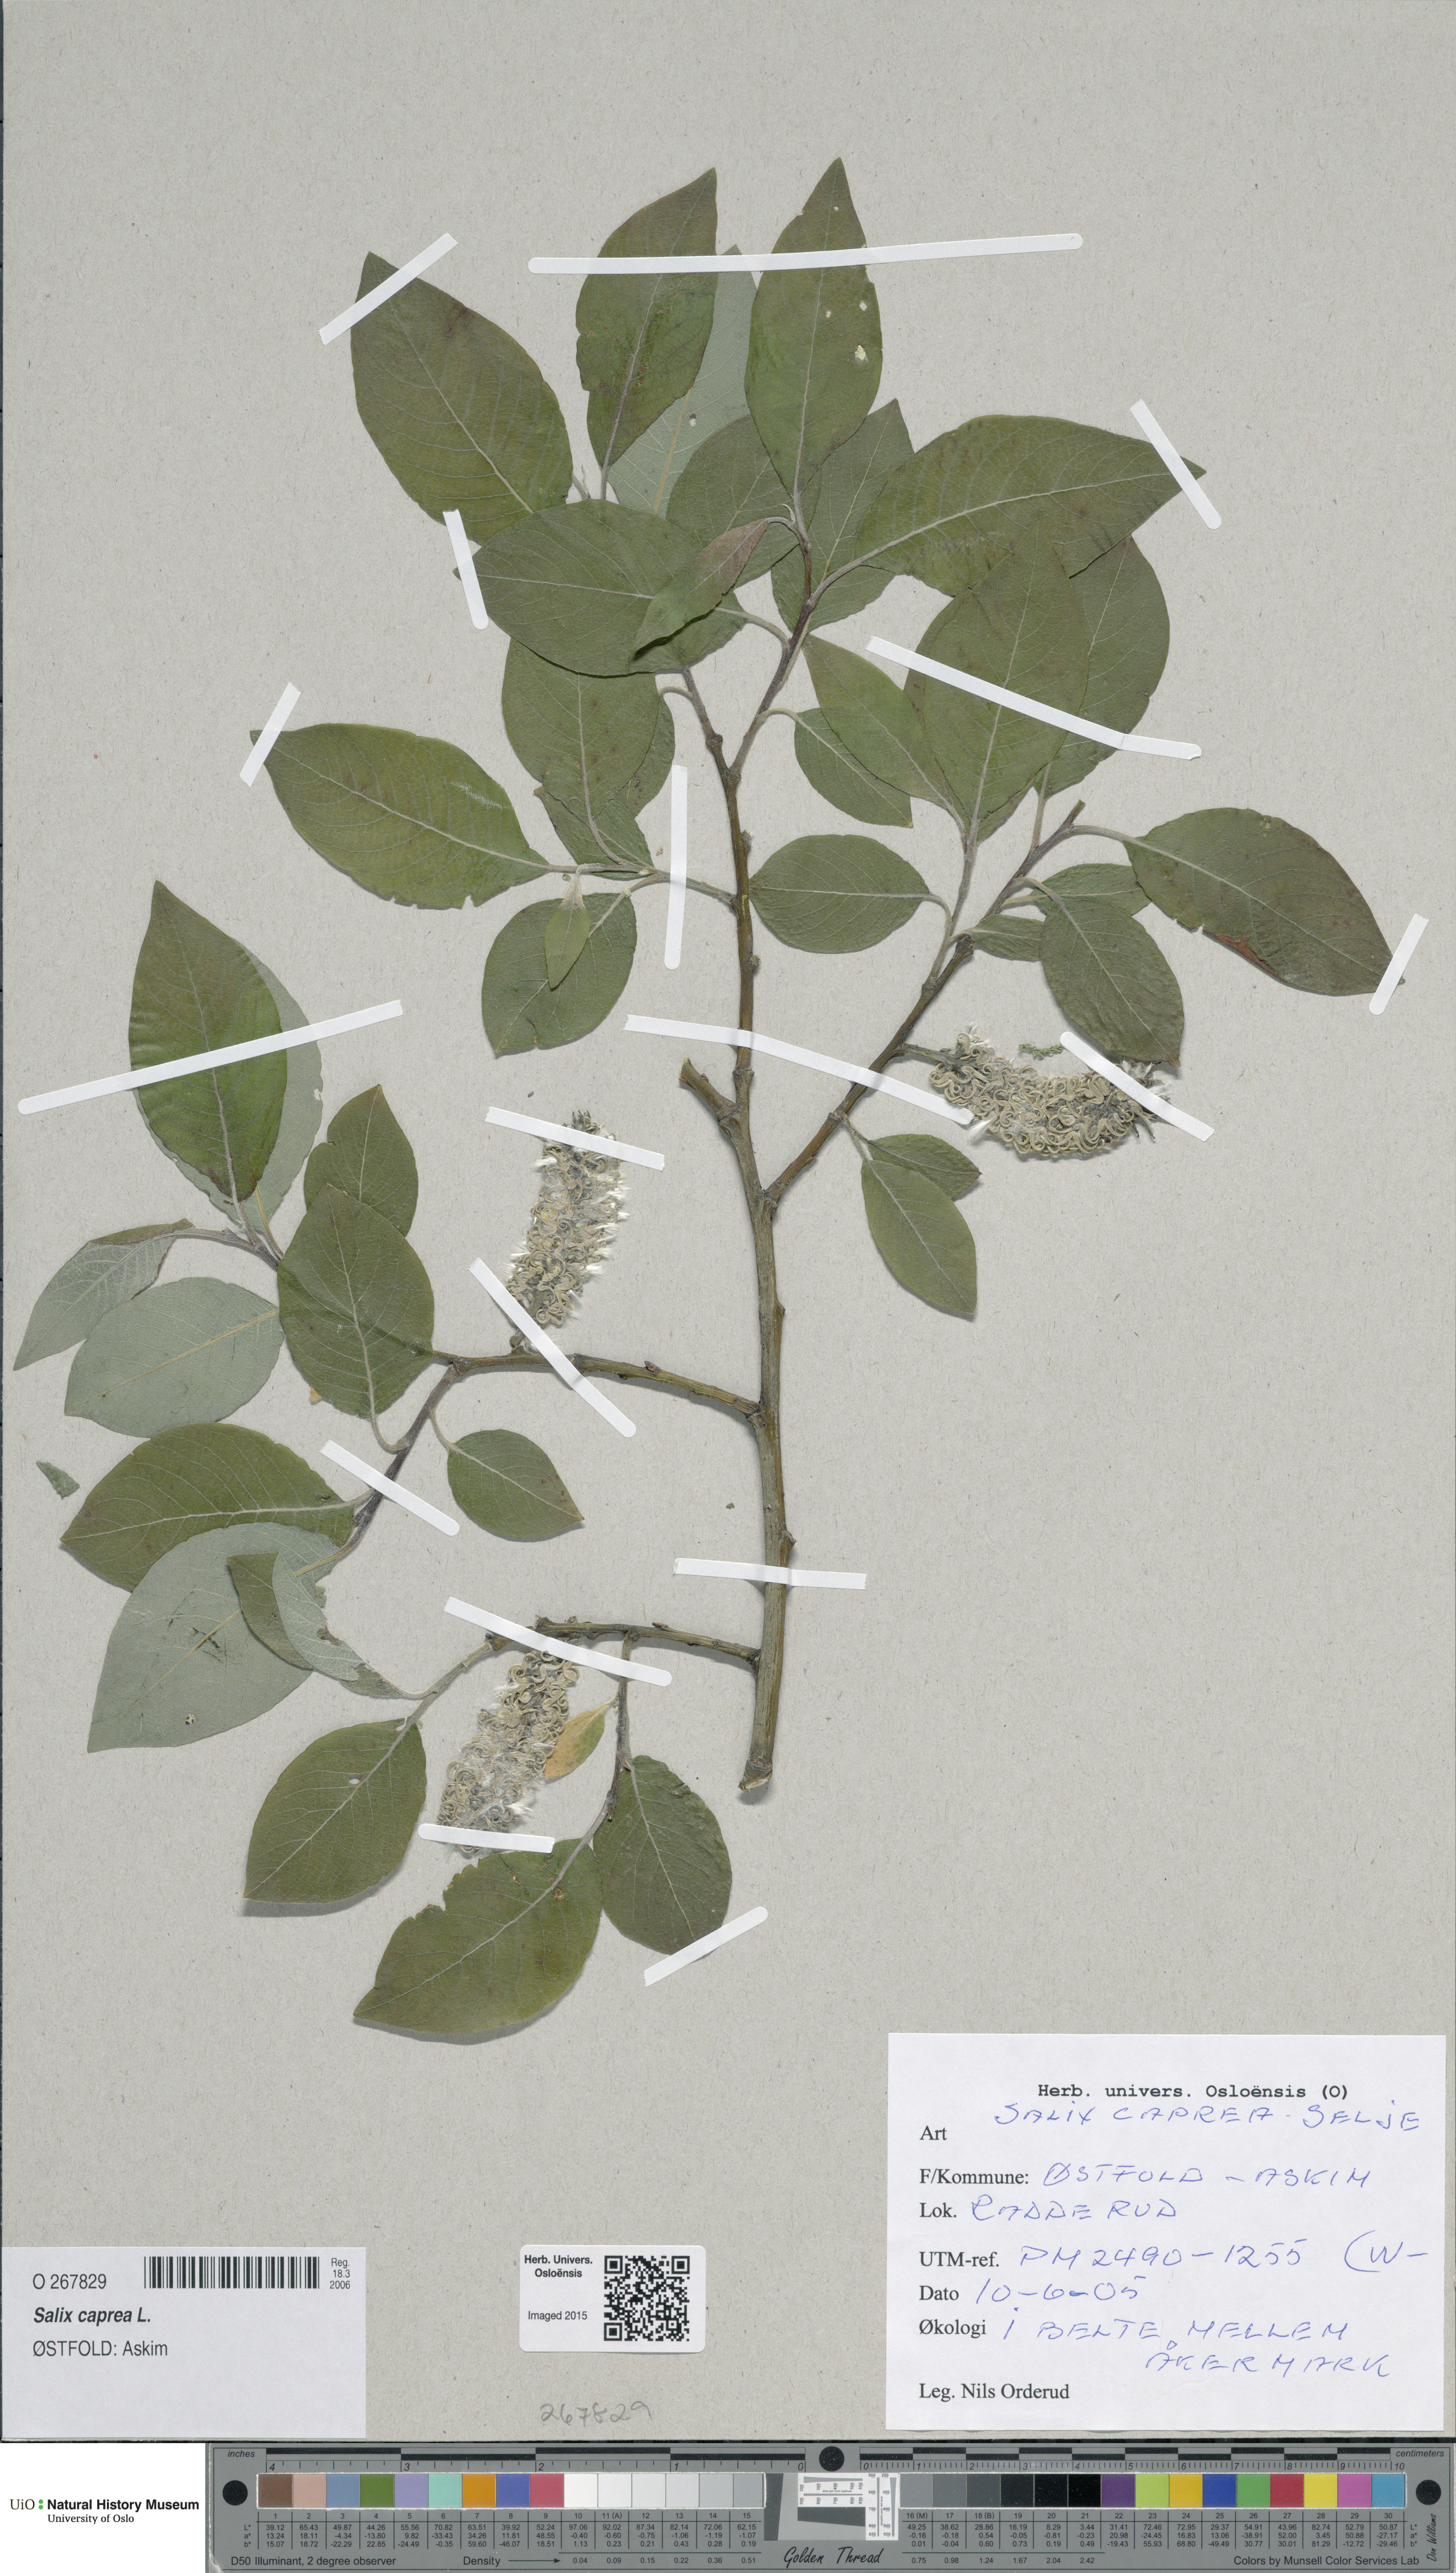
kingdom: Plantae
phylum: Tracheophyta
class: Magnoliopsida
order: Malpighiales
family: Salicaceae
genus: Salix
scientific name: Salix caprea
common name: Goat willow
